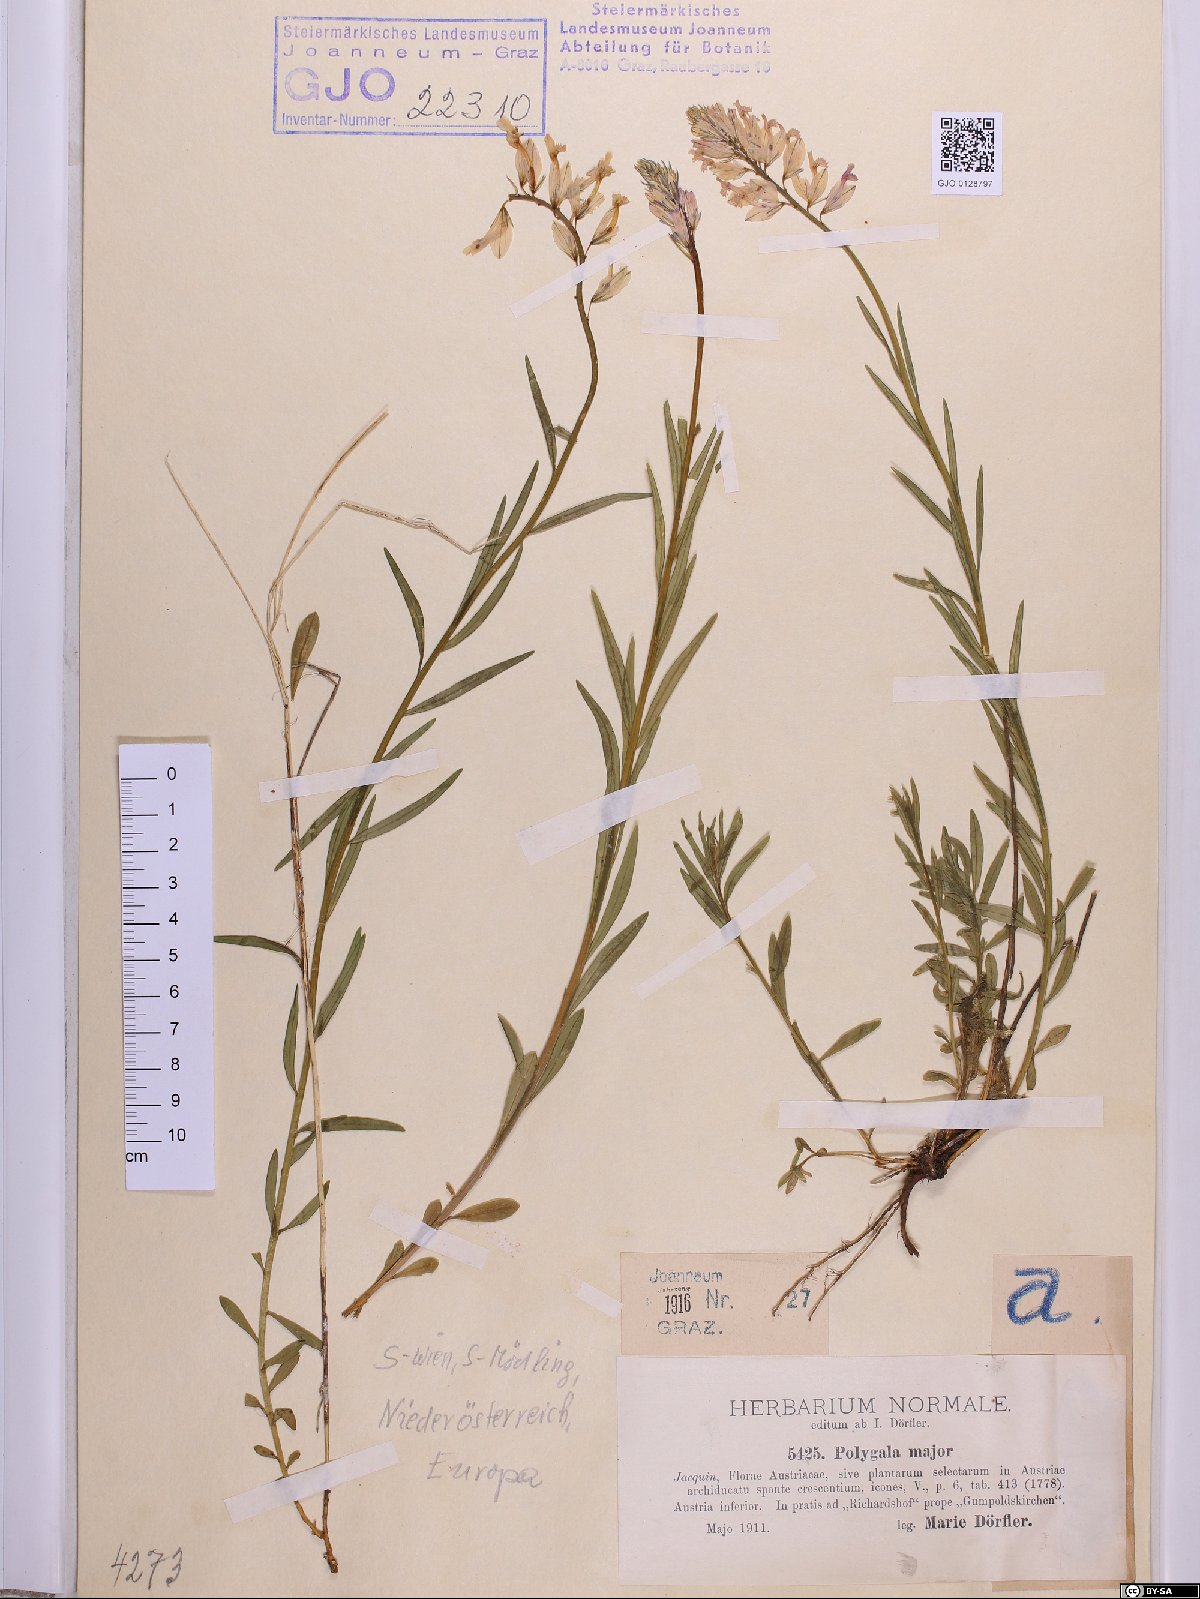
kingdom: Plantae
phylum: Tracheophyta
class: Magnoliopsida
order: Fabales
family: Polygalaceae
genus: Polygala
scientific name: Polygala major
